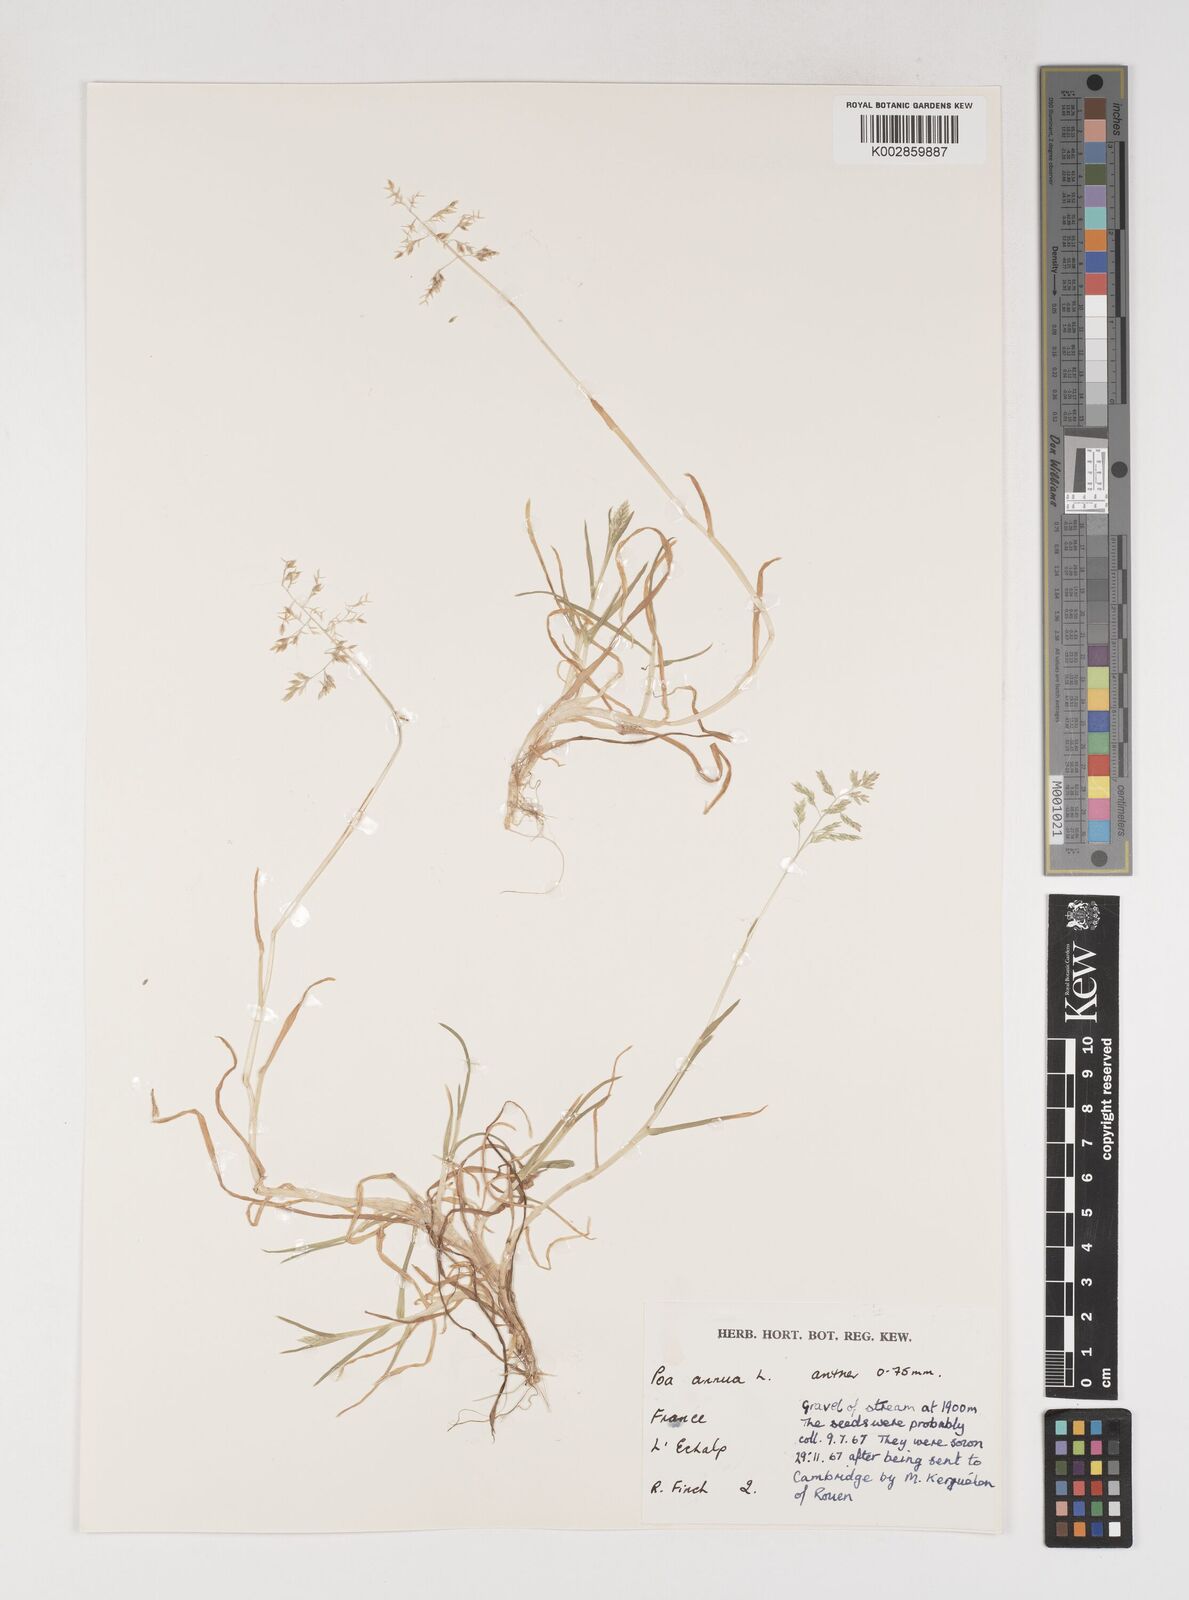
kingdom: Plantae
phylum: Tracheophyta
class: Liliopsida
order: Poales
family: Poaceae
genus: Poa
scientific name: Poa annua
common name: Annual bluegrass
